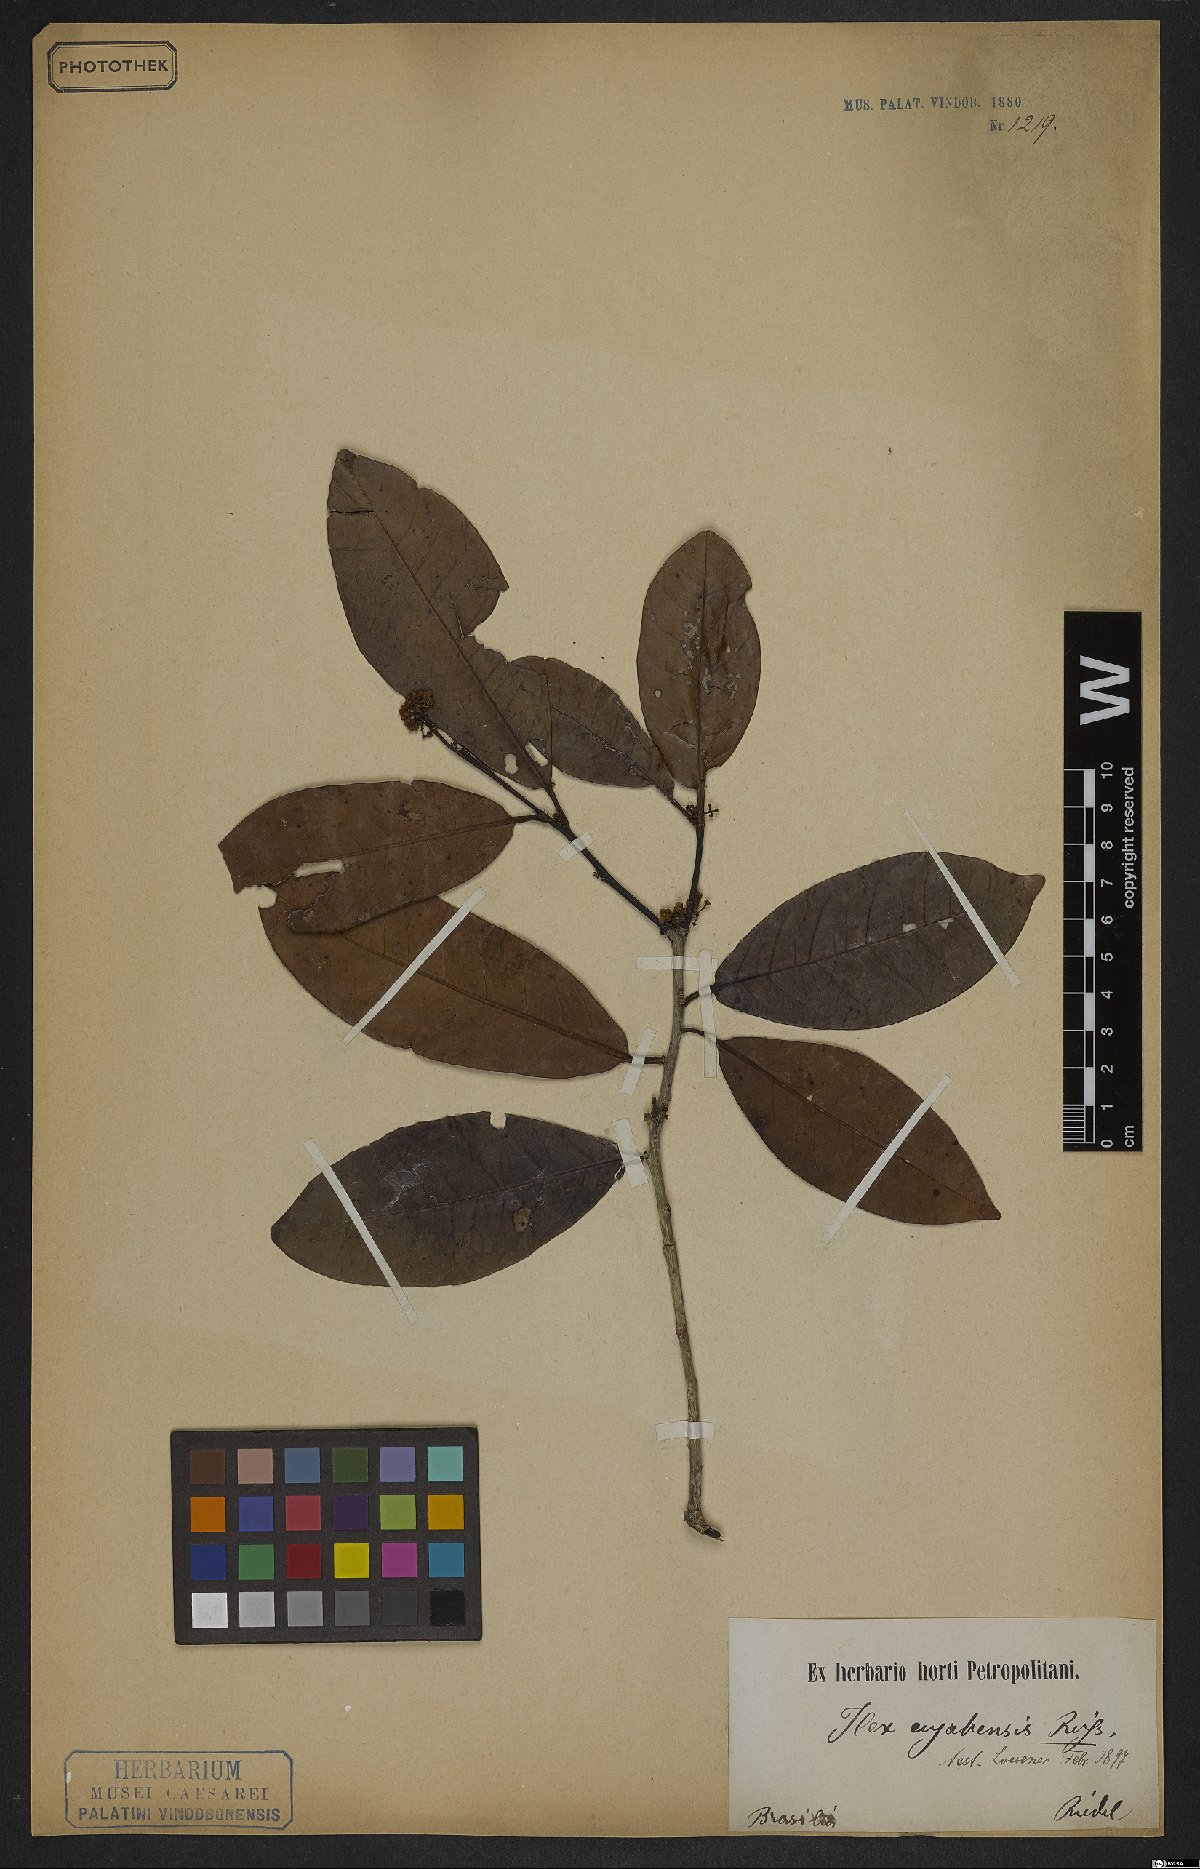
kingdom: Plantae
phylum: Tracheophyta
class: Magnoliopsida
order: Aquifoliales
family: Aquifoliaceae
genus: Ilex
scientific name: Ilex
